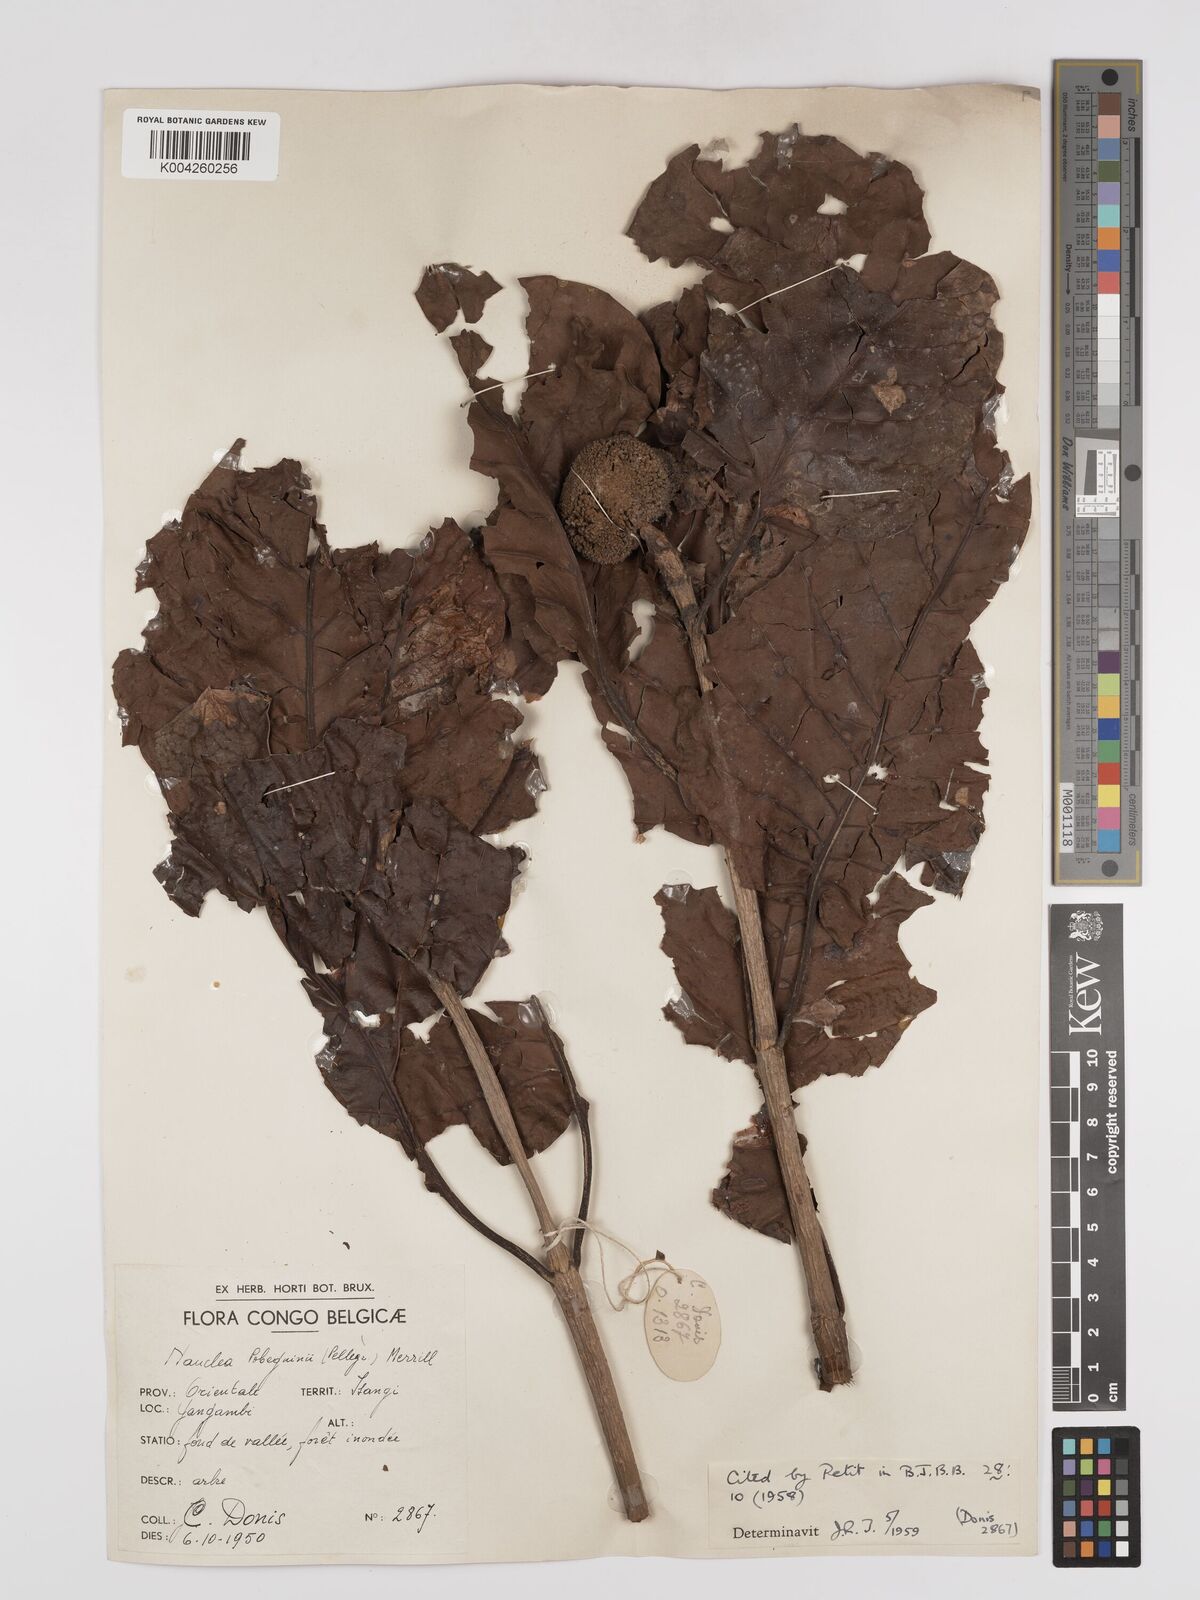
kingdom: Plantae
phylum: Tracheophyta
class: Magnoliopsida
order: Gentianales
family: Rubiaceae
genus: Nauclea
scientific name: Nauclea pobeguinii
